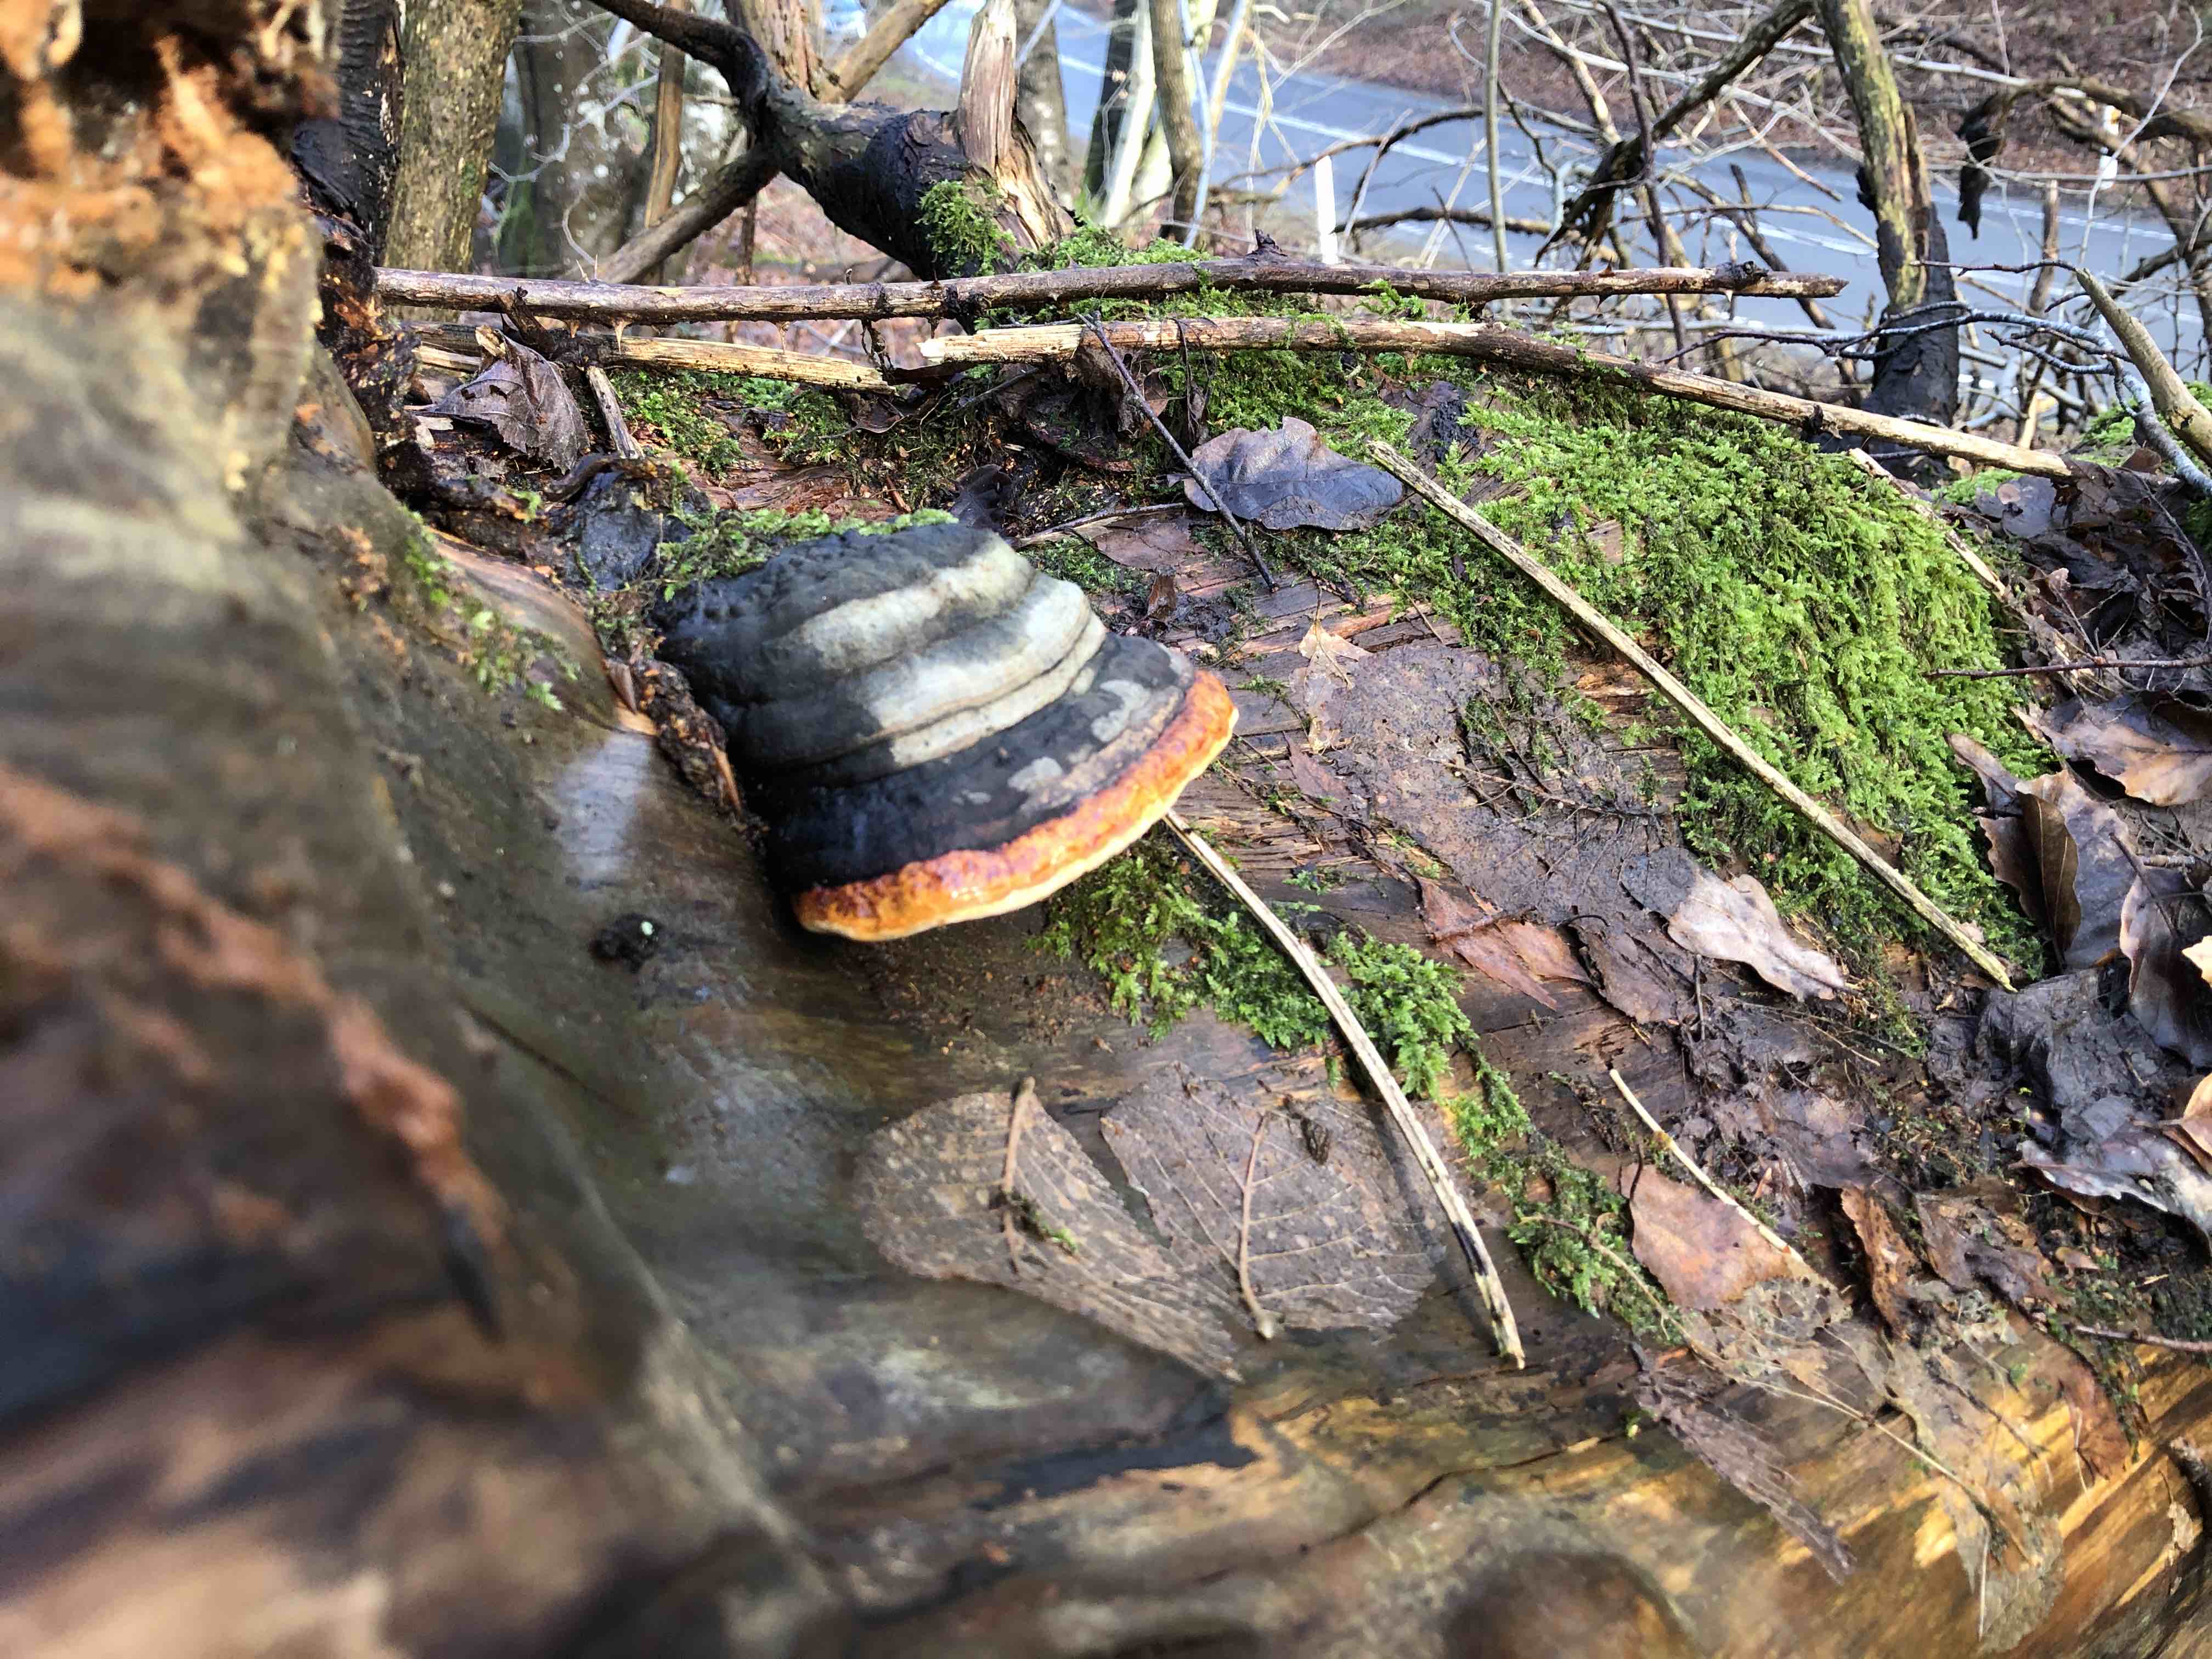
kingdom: Fungi
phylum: Basidiomycota
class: Agaricomycetes
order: Polyporales
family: Fomitopsidaceae
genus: Fomitopsis
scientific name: Fomitopsis pinicola
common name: randbæltet hovporesvamp
